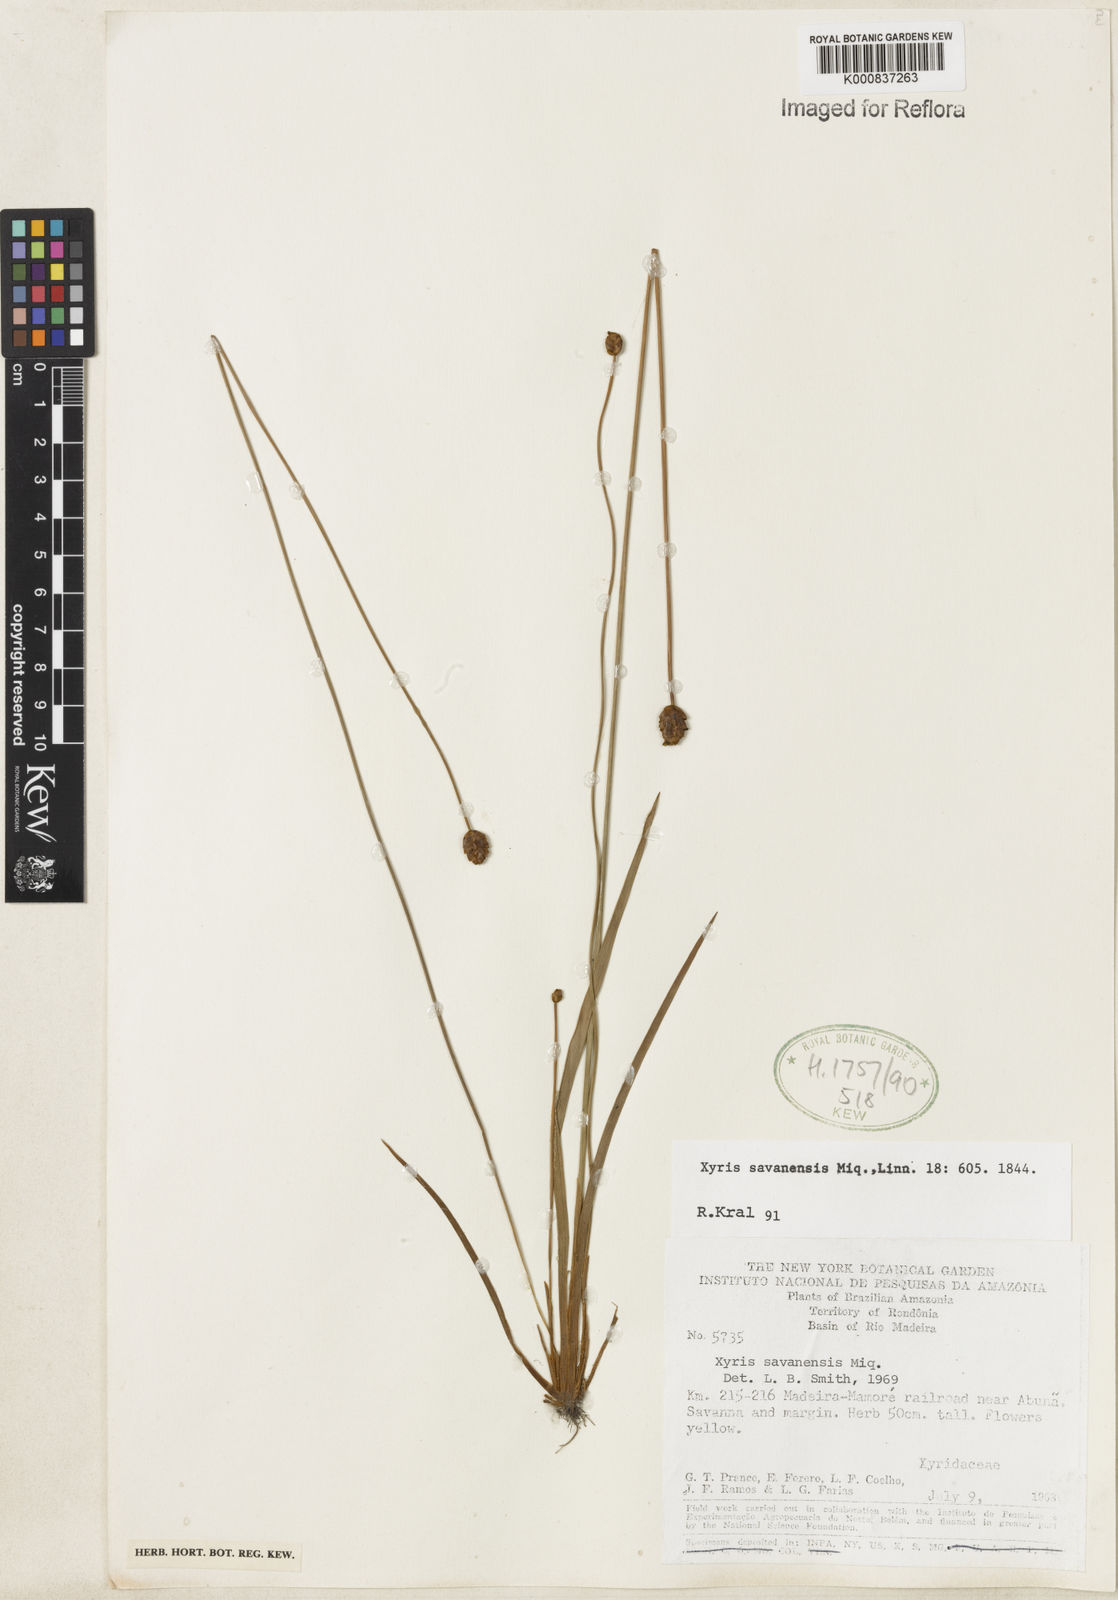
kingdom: Plantae
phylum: Tracheophyta
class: Liliopsida
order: Poales
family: Xyridaceae
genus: Xyris
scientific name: Xyris savanensis
